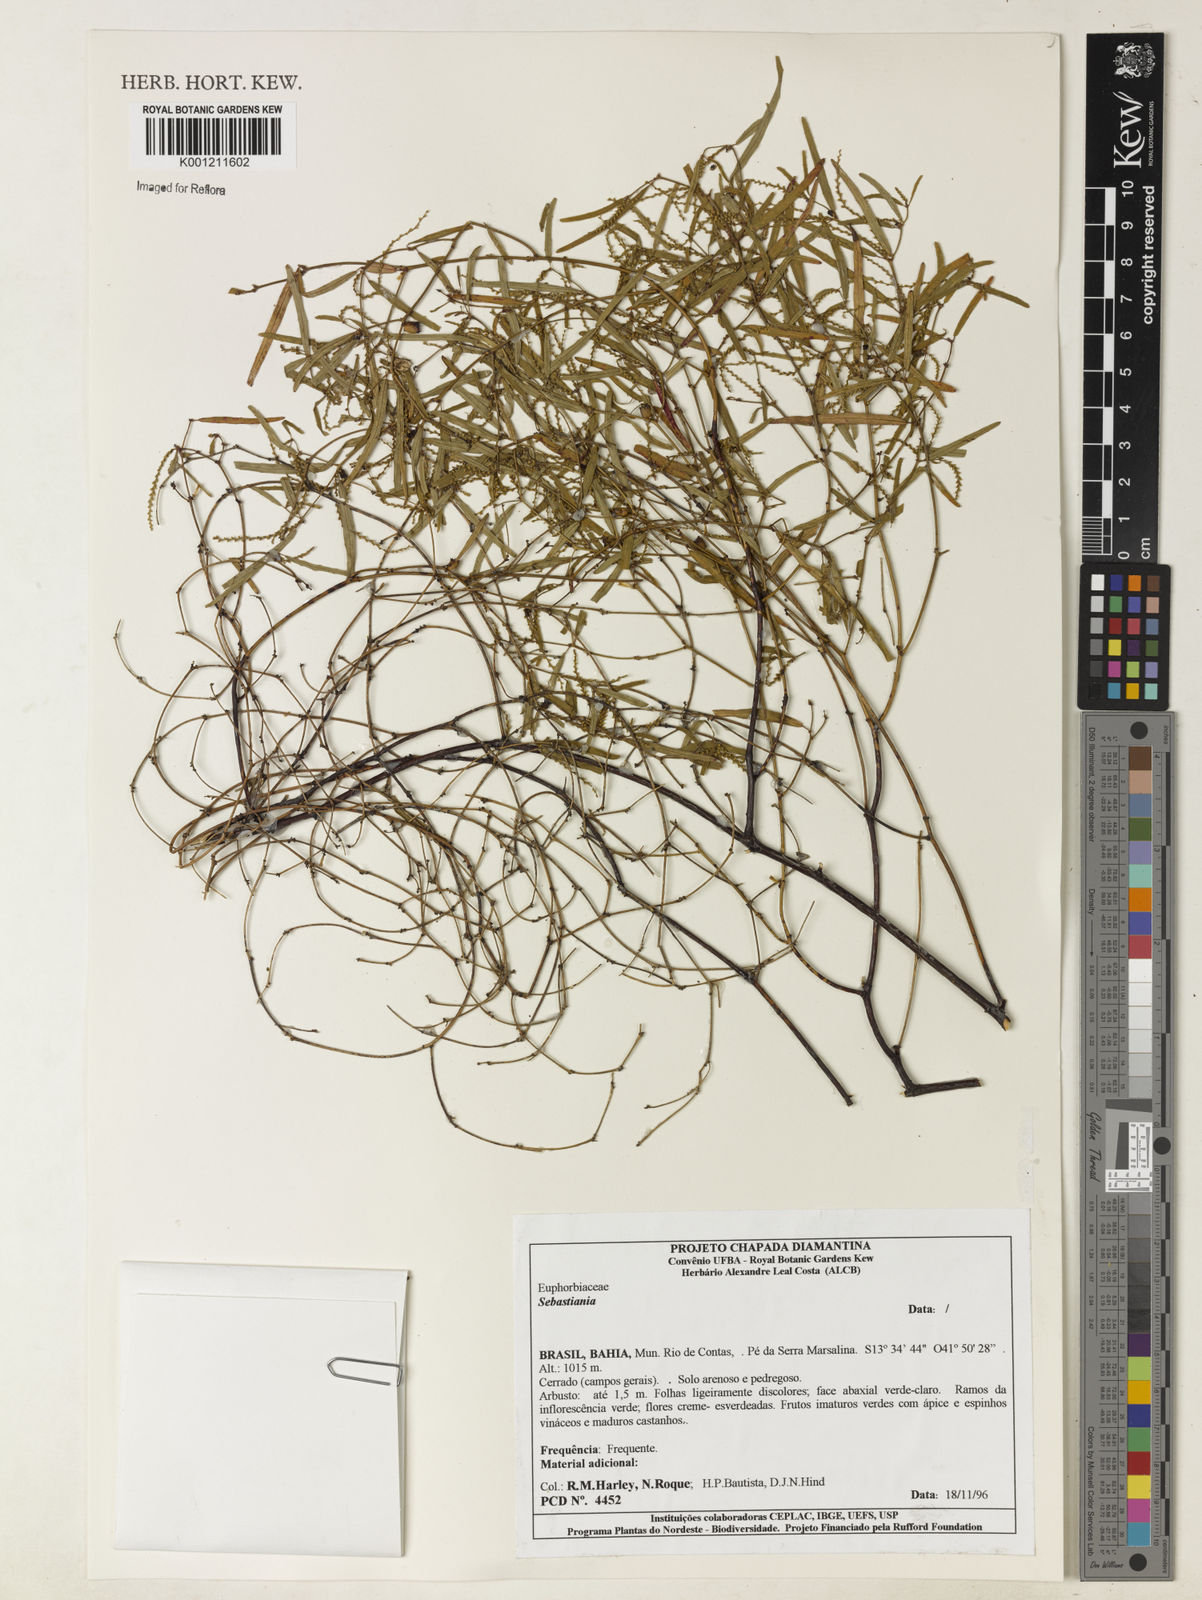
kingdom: Plantae
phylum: Tracheophyta
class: Magnoliopsida
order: Malpighiales
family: Euphorbiaceae
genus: Microstachys
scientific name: Microstachys
